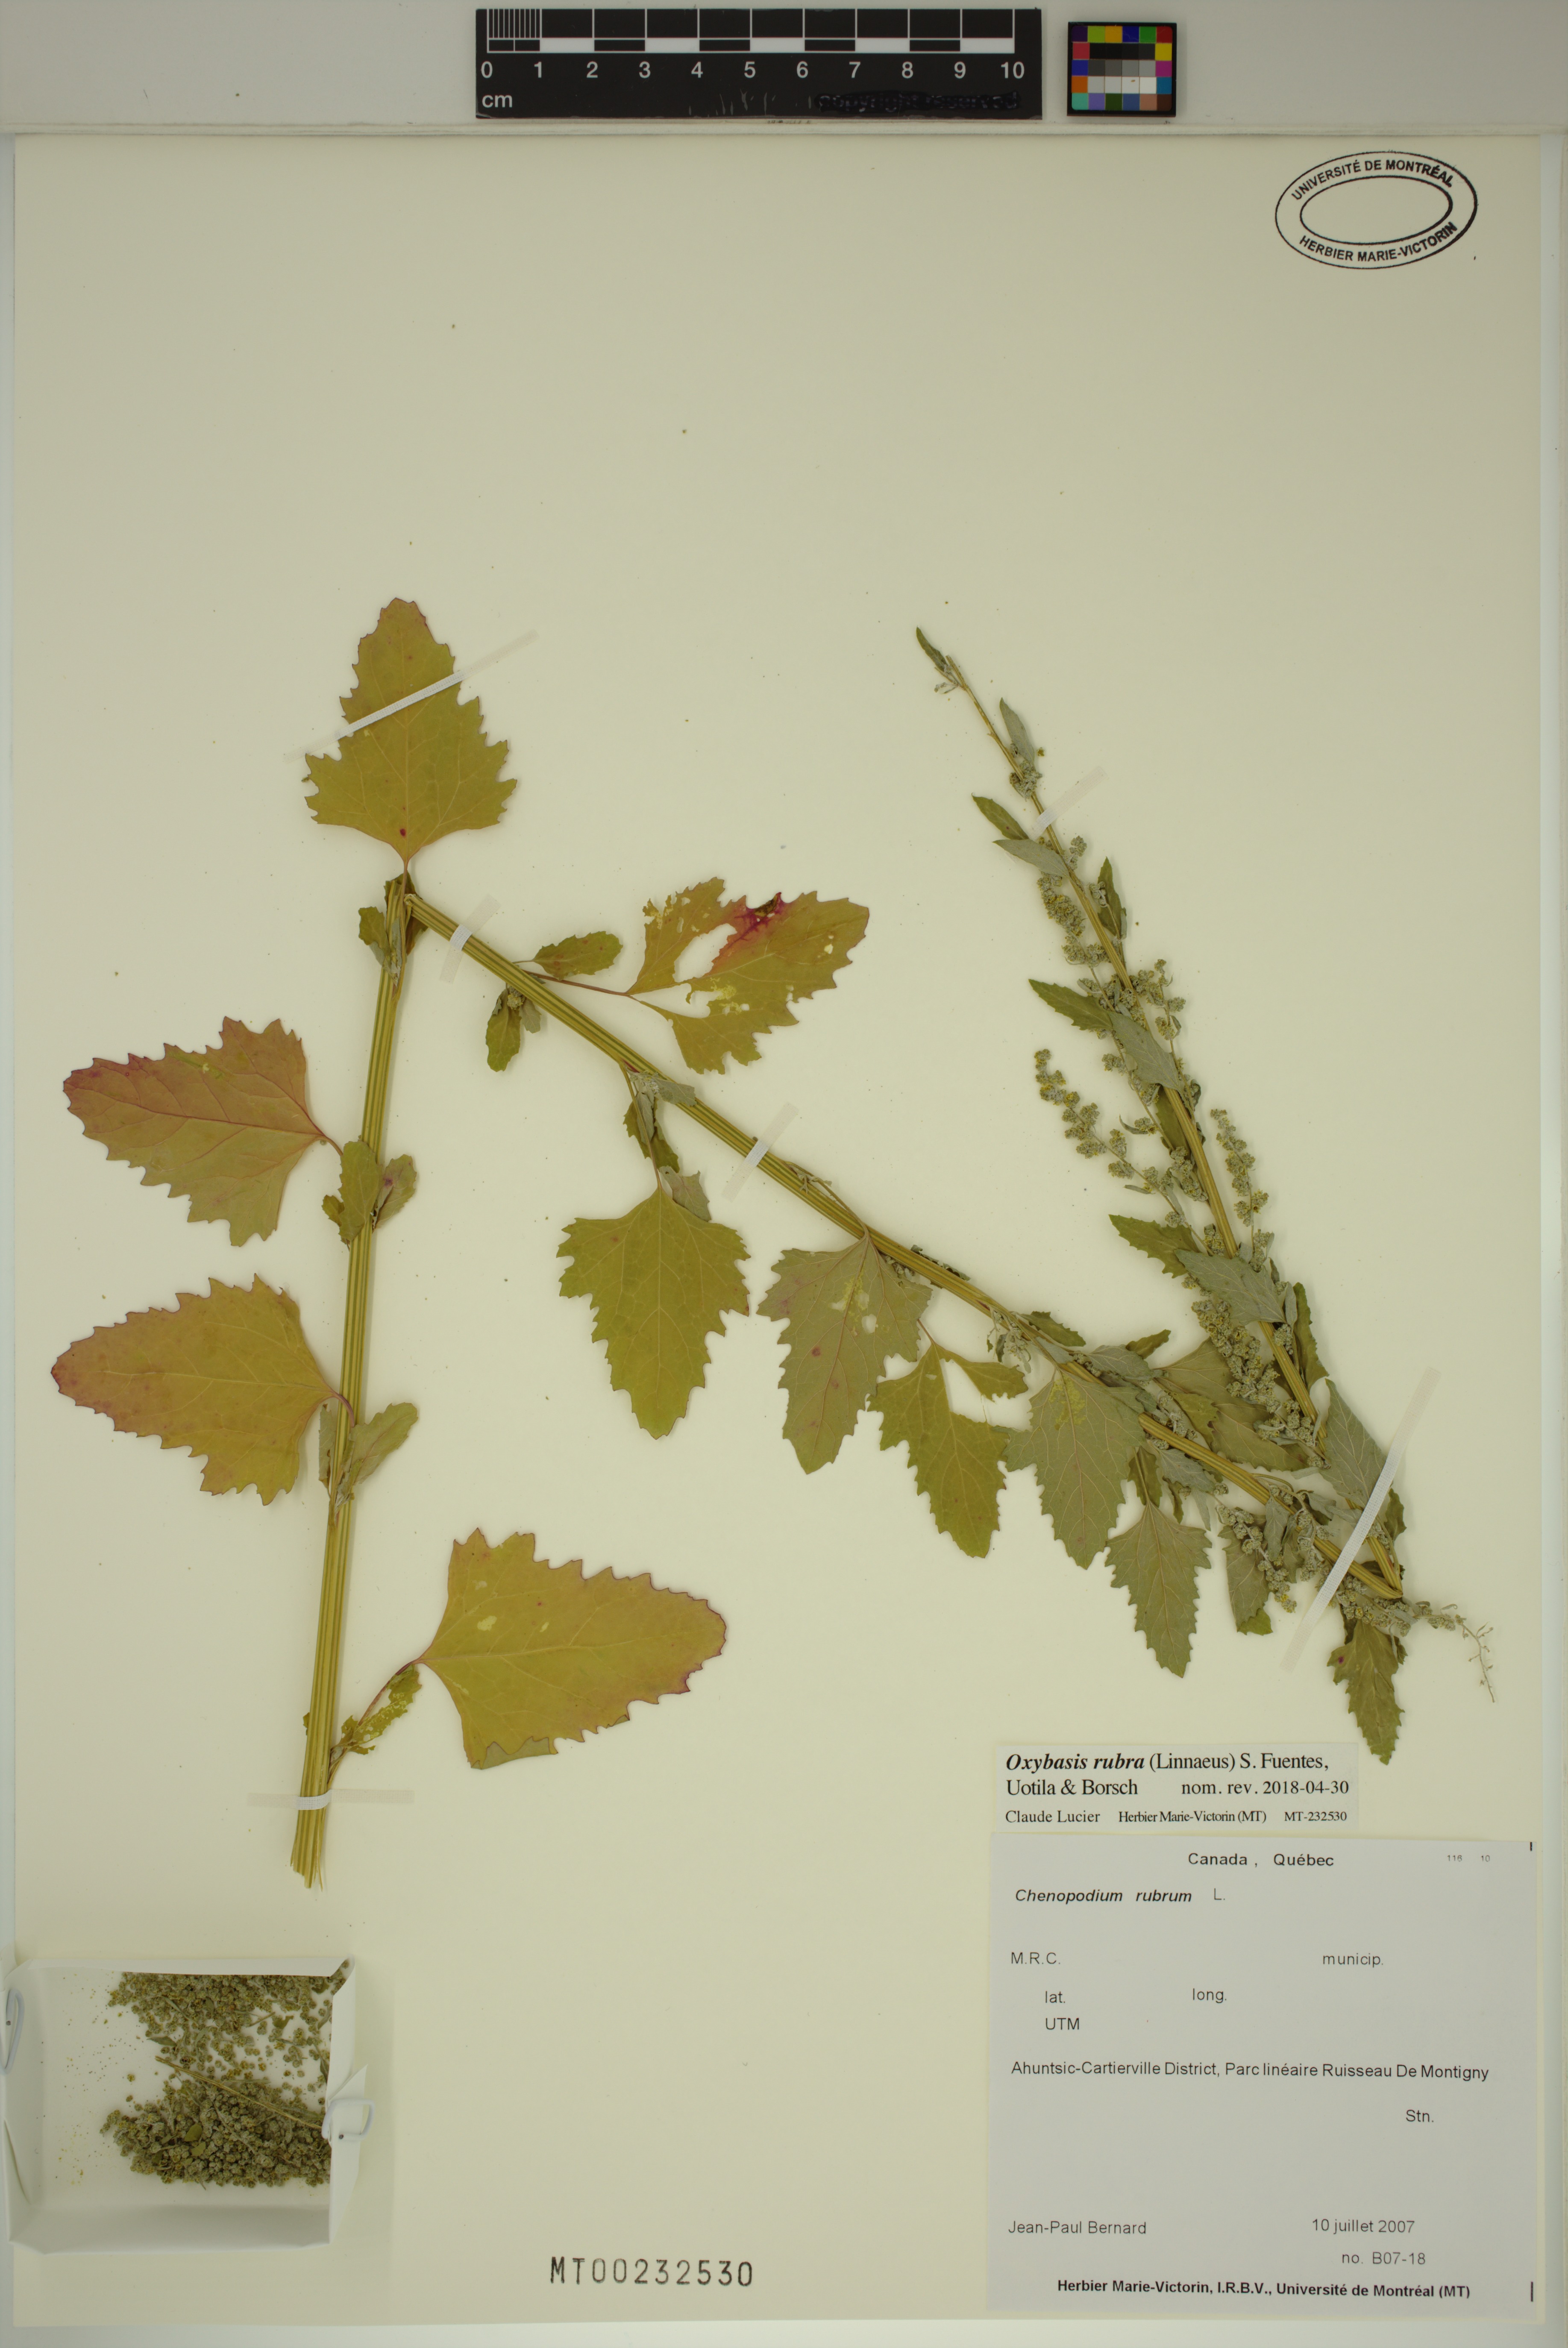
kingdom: Plantae
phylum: Tracheophyta
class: Magnoliopsida
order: Caryophyllales
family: Amaranthaceae
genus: Oxybasis
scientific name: Oxybasis rubra
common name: Red goosefoot
